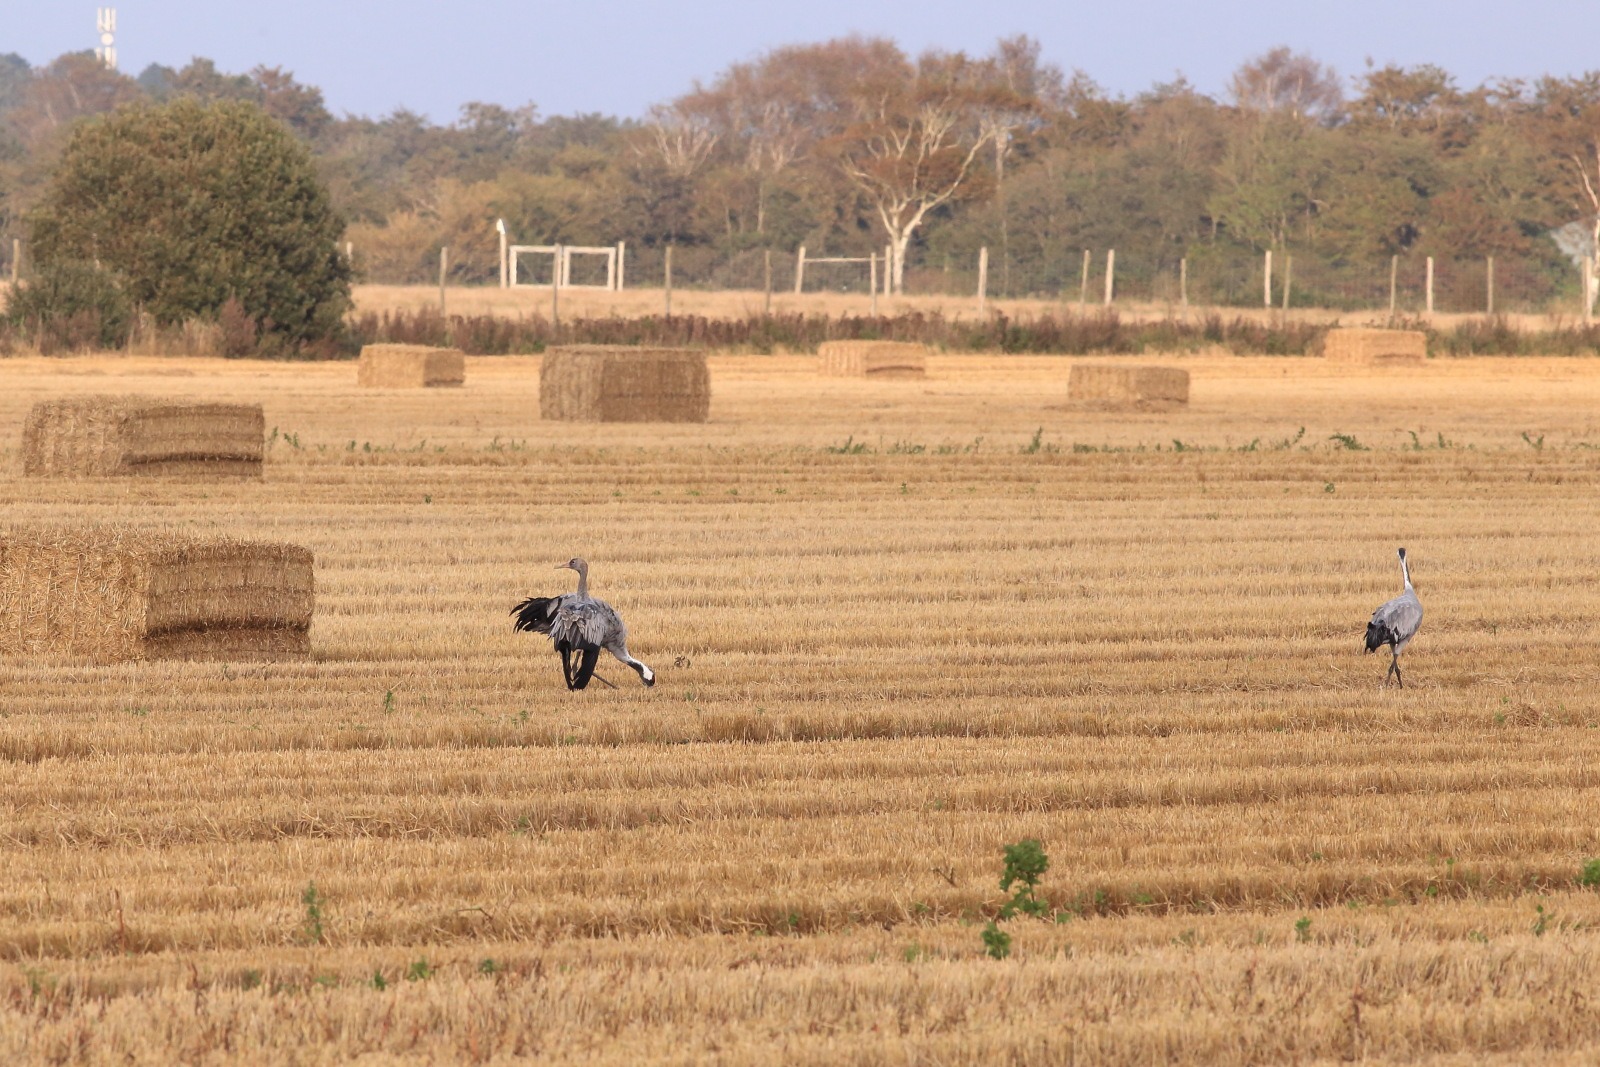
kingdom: Animalia
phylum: Chordata
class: Aves
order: Gruiformes
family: Gruidae
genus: Grus
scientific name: Grus grus
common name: Trane
